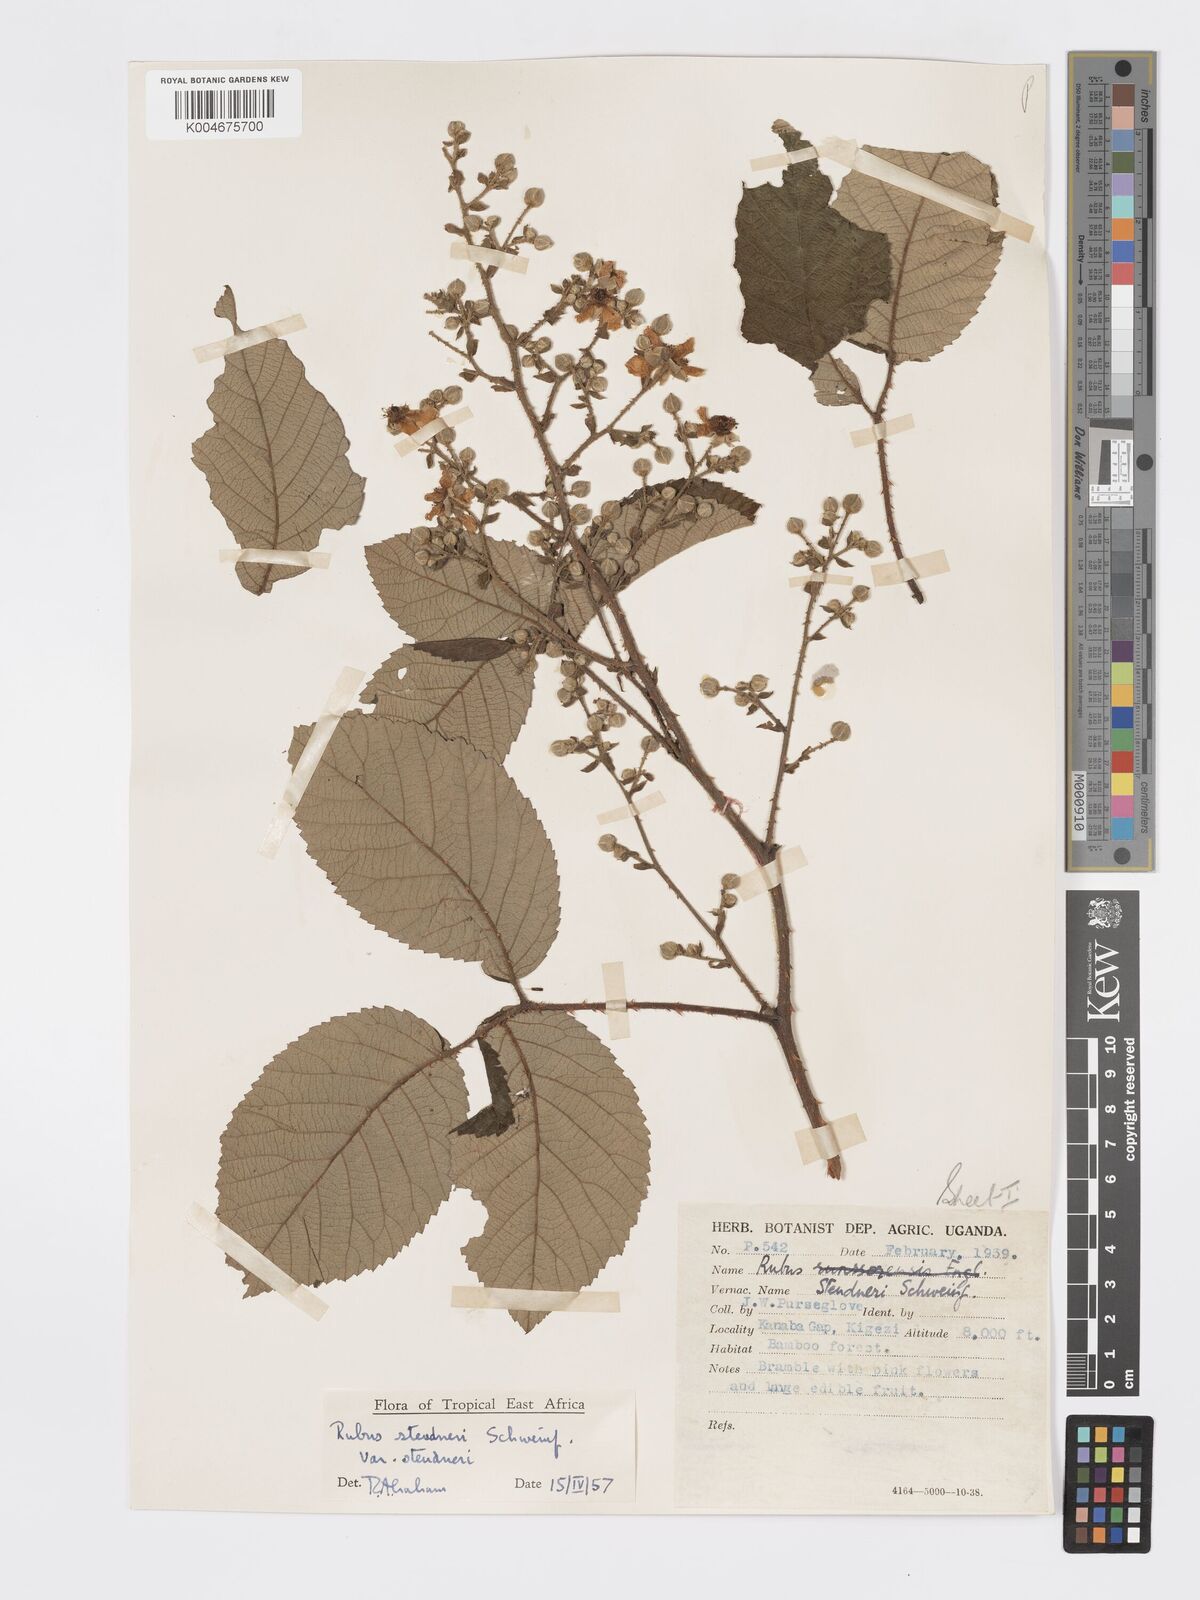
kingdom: Plantae
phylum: Tracheophyta
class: Magnoliopsida
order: Rosales
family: Rosaceae
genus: Rubus
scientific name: Rubus steudneri
